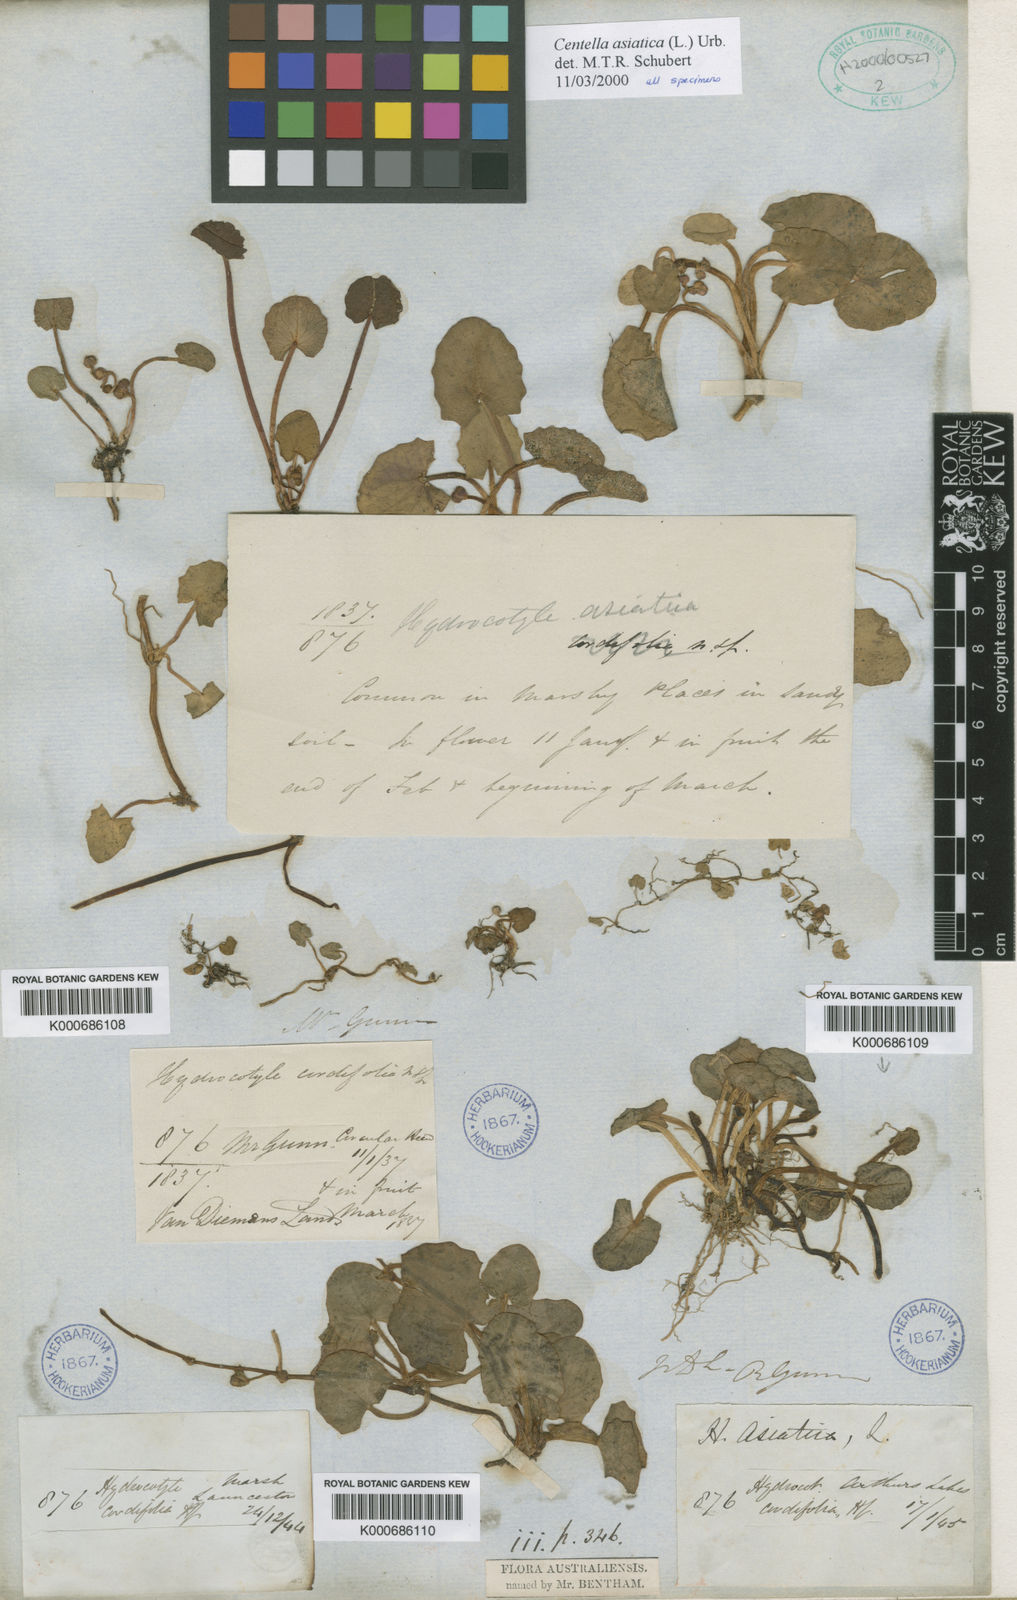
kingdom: Plantae
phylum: Tracheophyta
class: Magnoliopsida
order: Apiales
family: Apiaceae
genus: Centella
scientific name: Centella asiatica
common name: Spadeleaf
